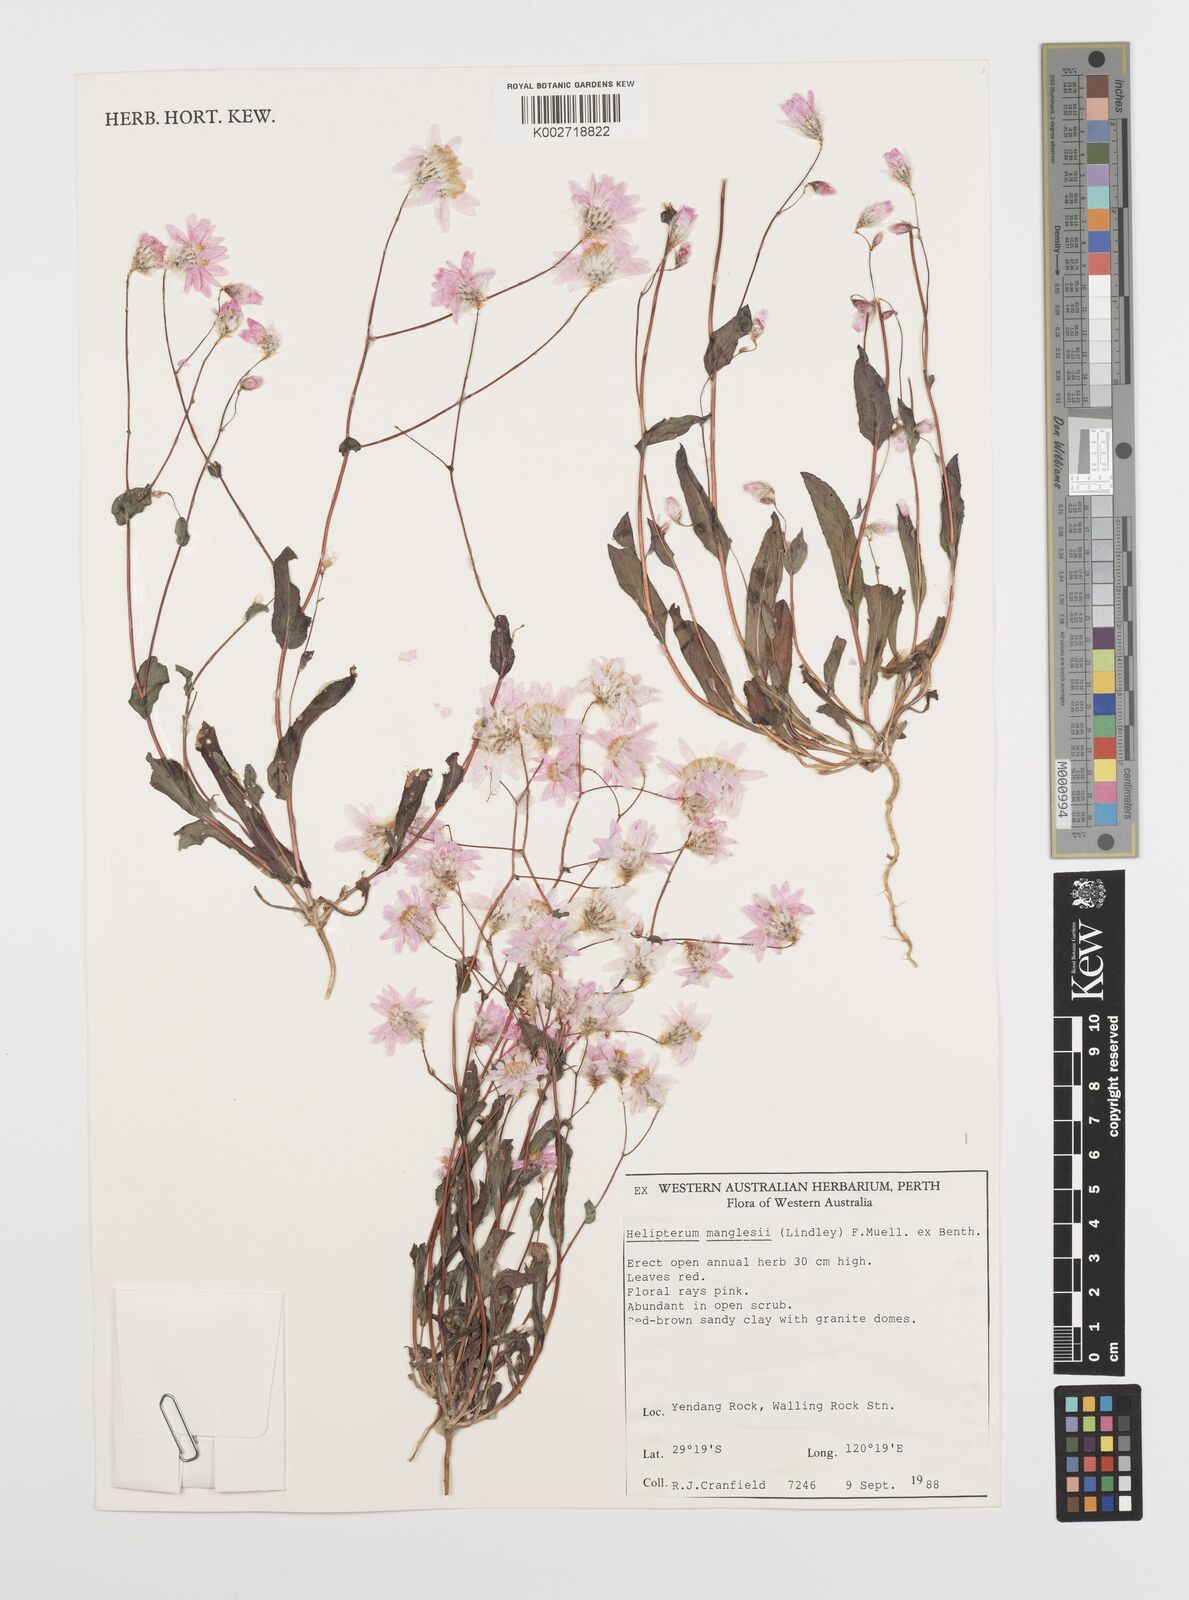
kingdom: Plantae
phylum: Tracheophyta
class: Magnoliopsida
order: Asterales
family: Asteraceae
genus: Rhodanthe
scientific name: Rhodanthe manglesii
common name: Pink sunray
